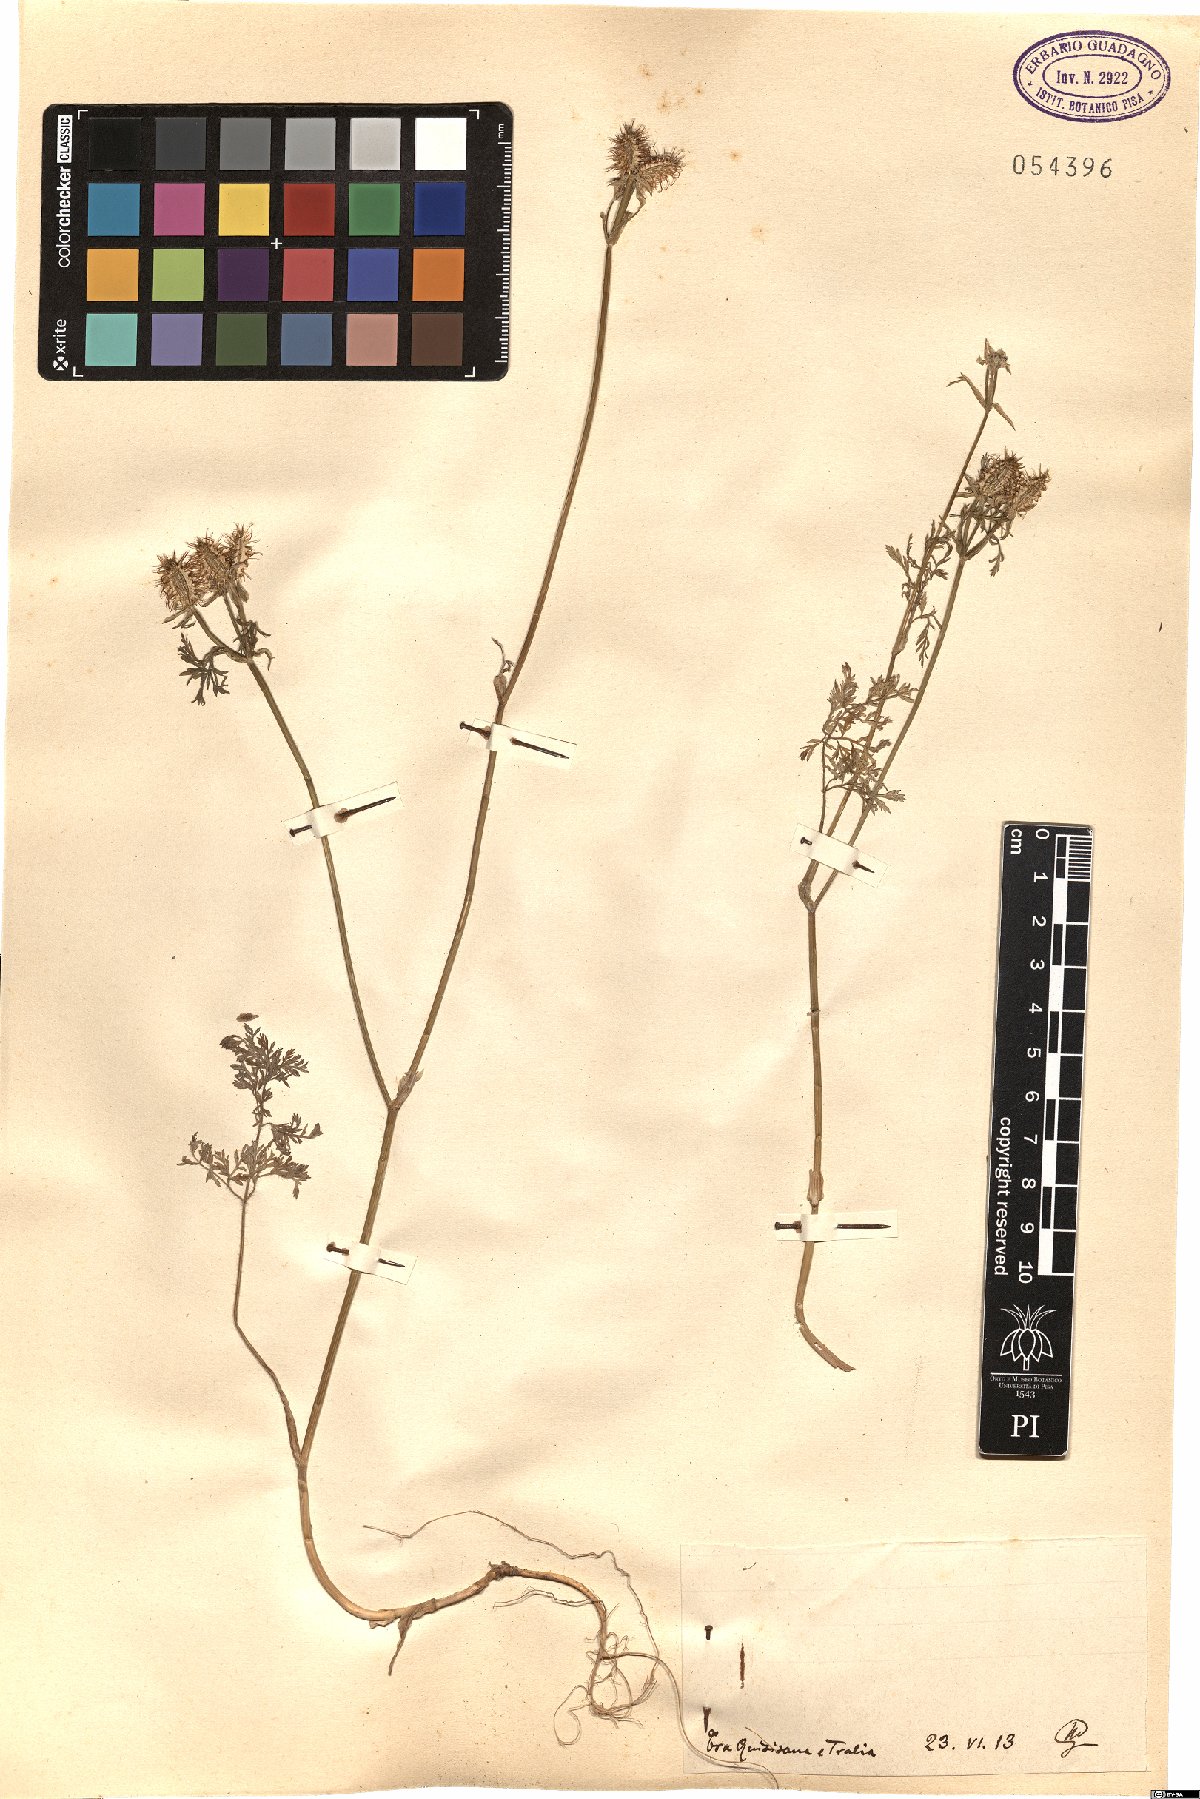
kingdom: Plantae
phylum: Tracheophyta
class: Magnoliopsida
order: Apiales
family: Apiaceae
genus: Daucus
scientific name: Daucus
